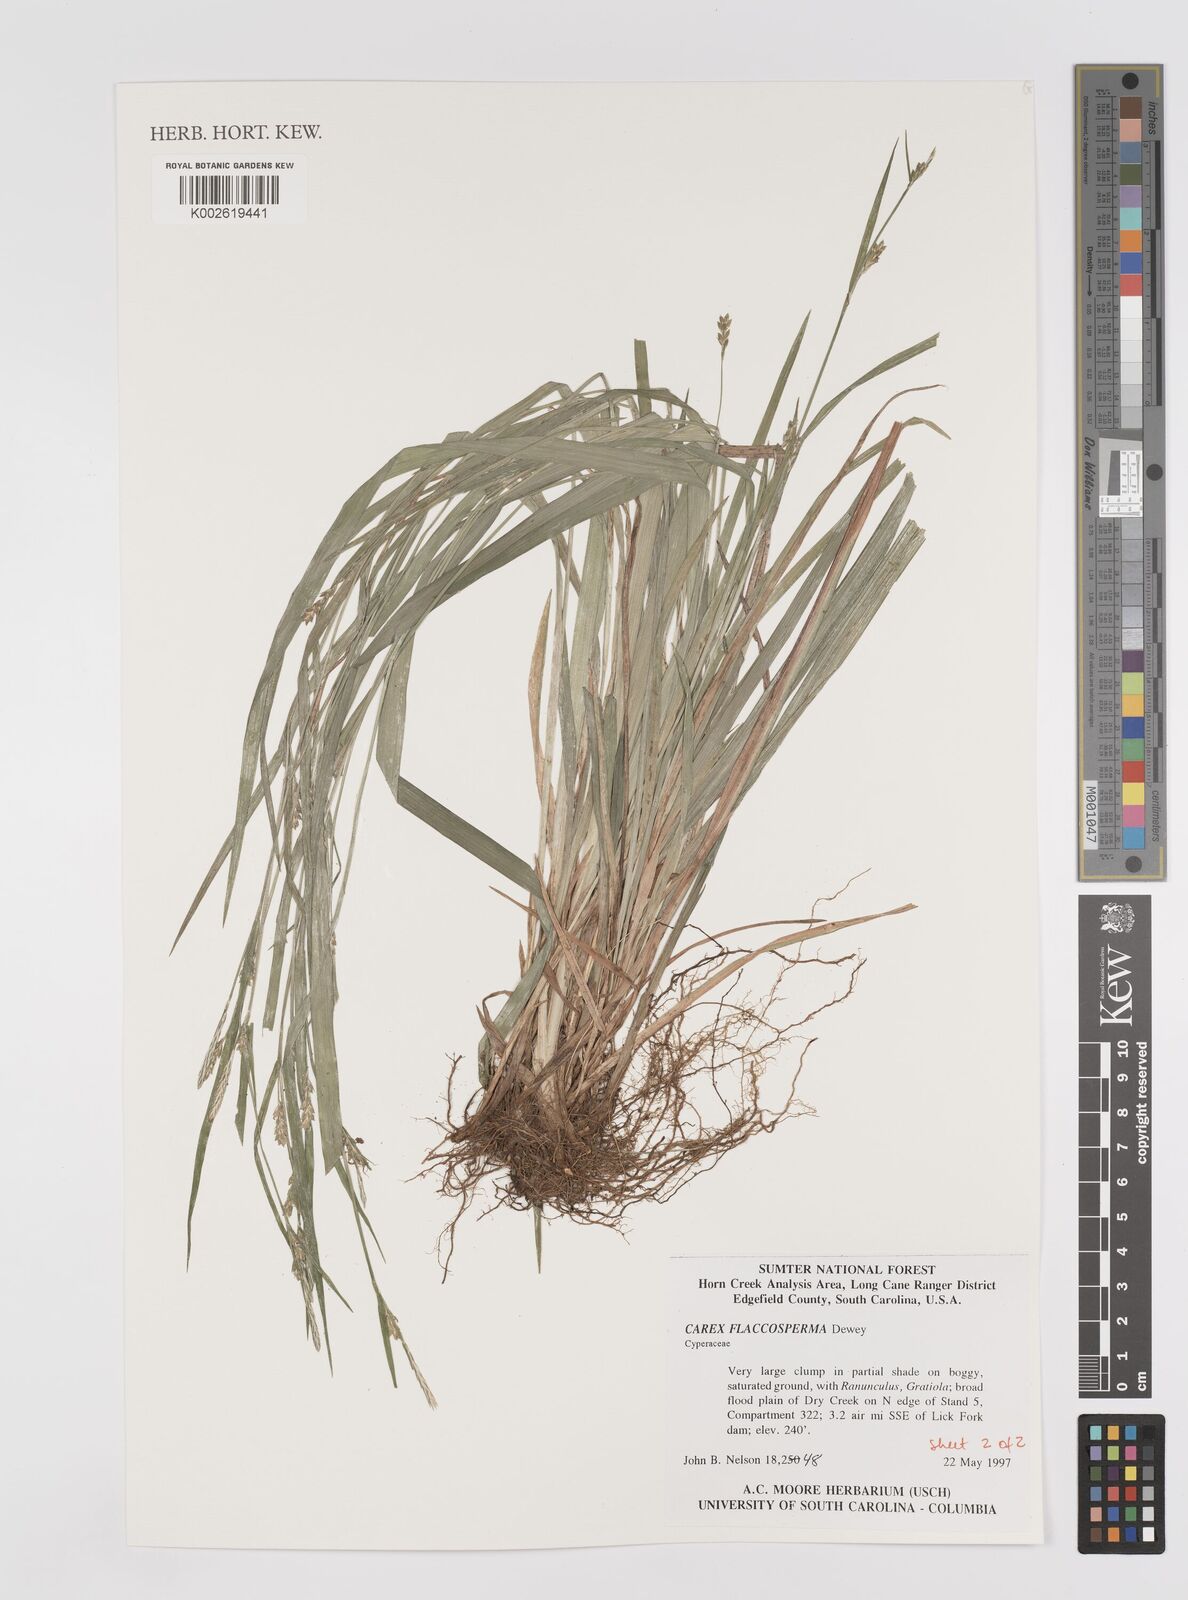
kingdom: Plantae
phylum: Tracheophyta
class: Liliopsida
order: Poales
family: Cyperaceae
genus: Carex
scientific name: Carex flaccosperma
